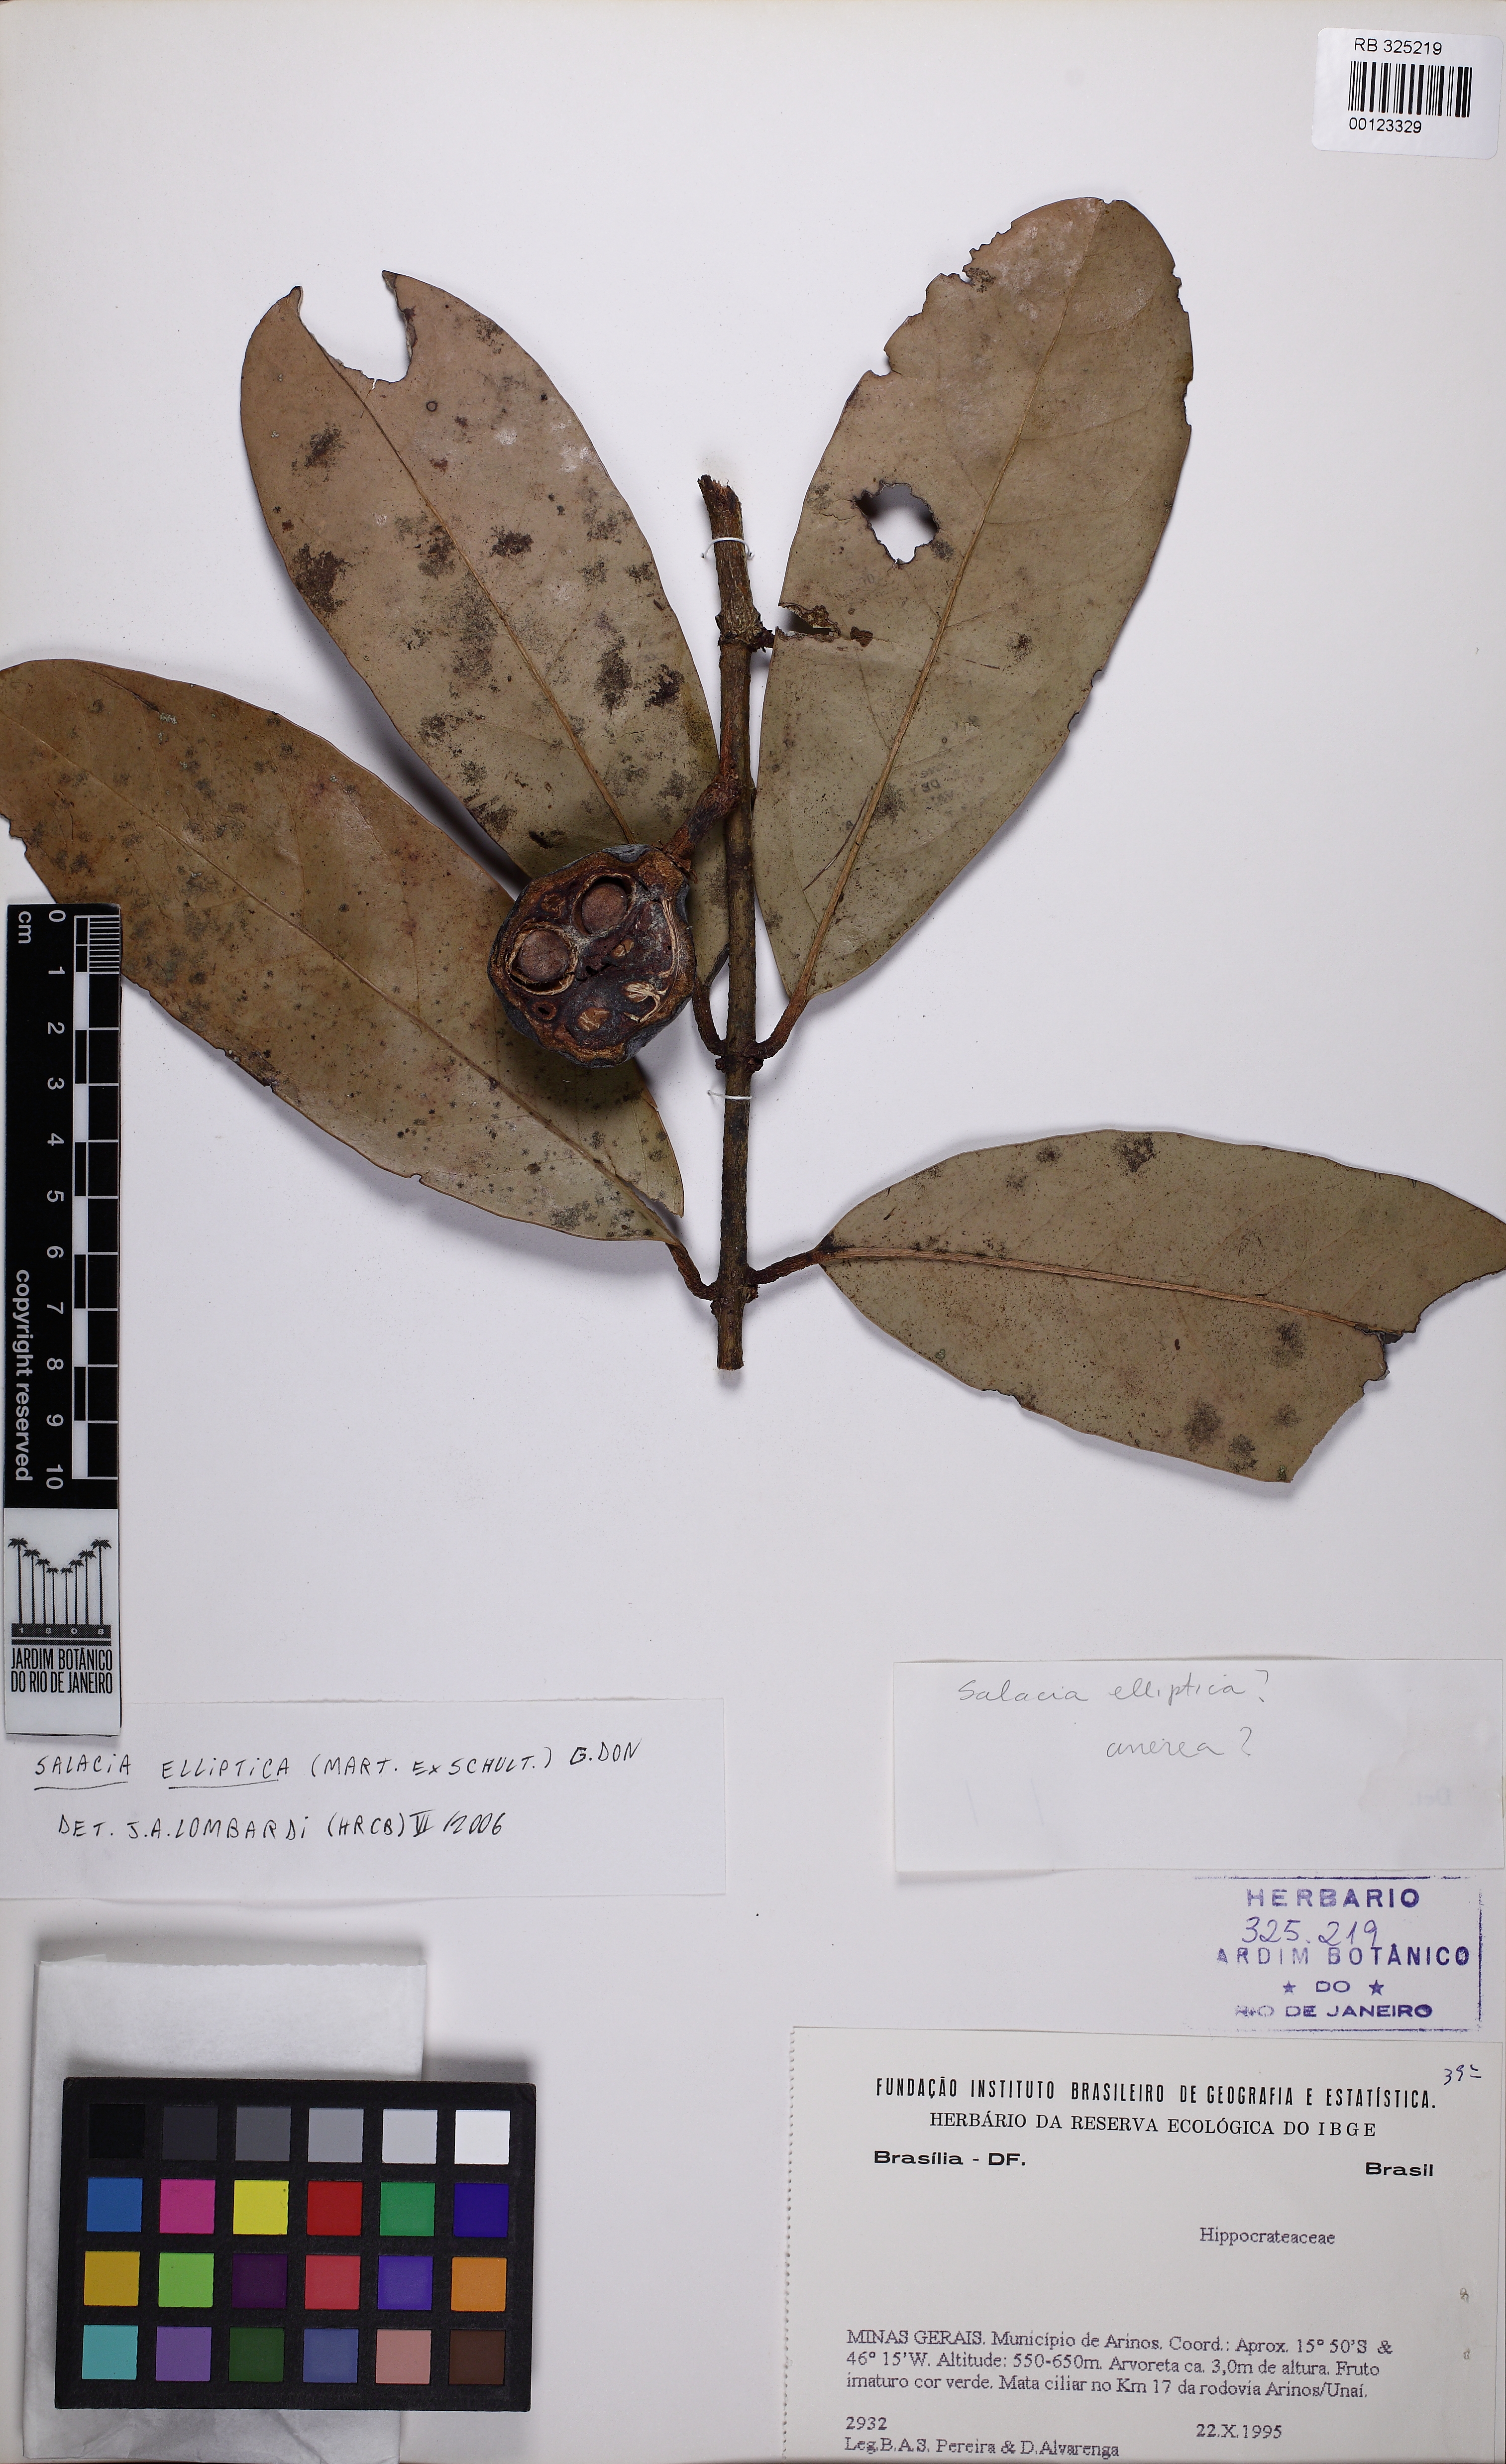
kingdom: Plantae
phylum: Tracheophyta
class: Magnoliopsida
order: Celastrales
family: Celastraceae
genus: Salacia
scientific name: Salacia elliptica
